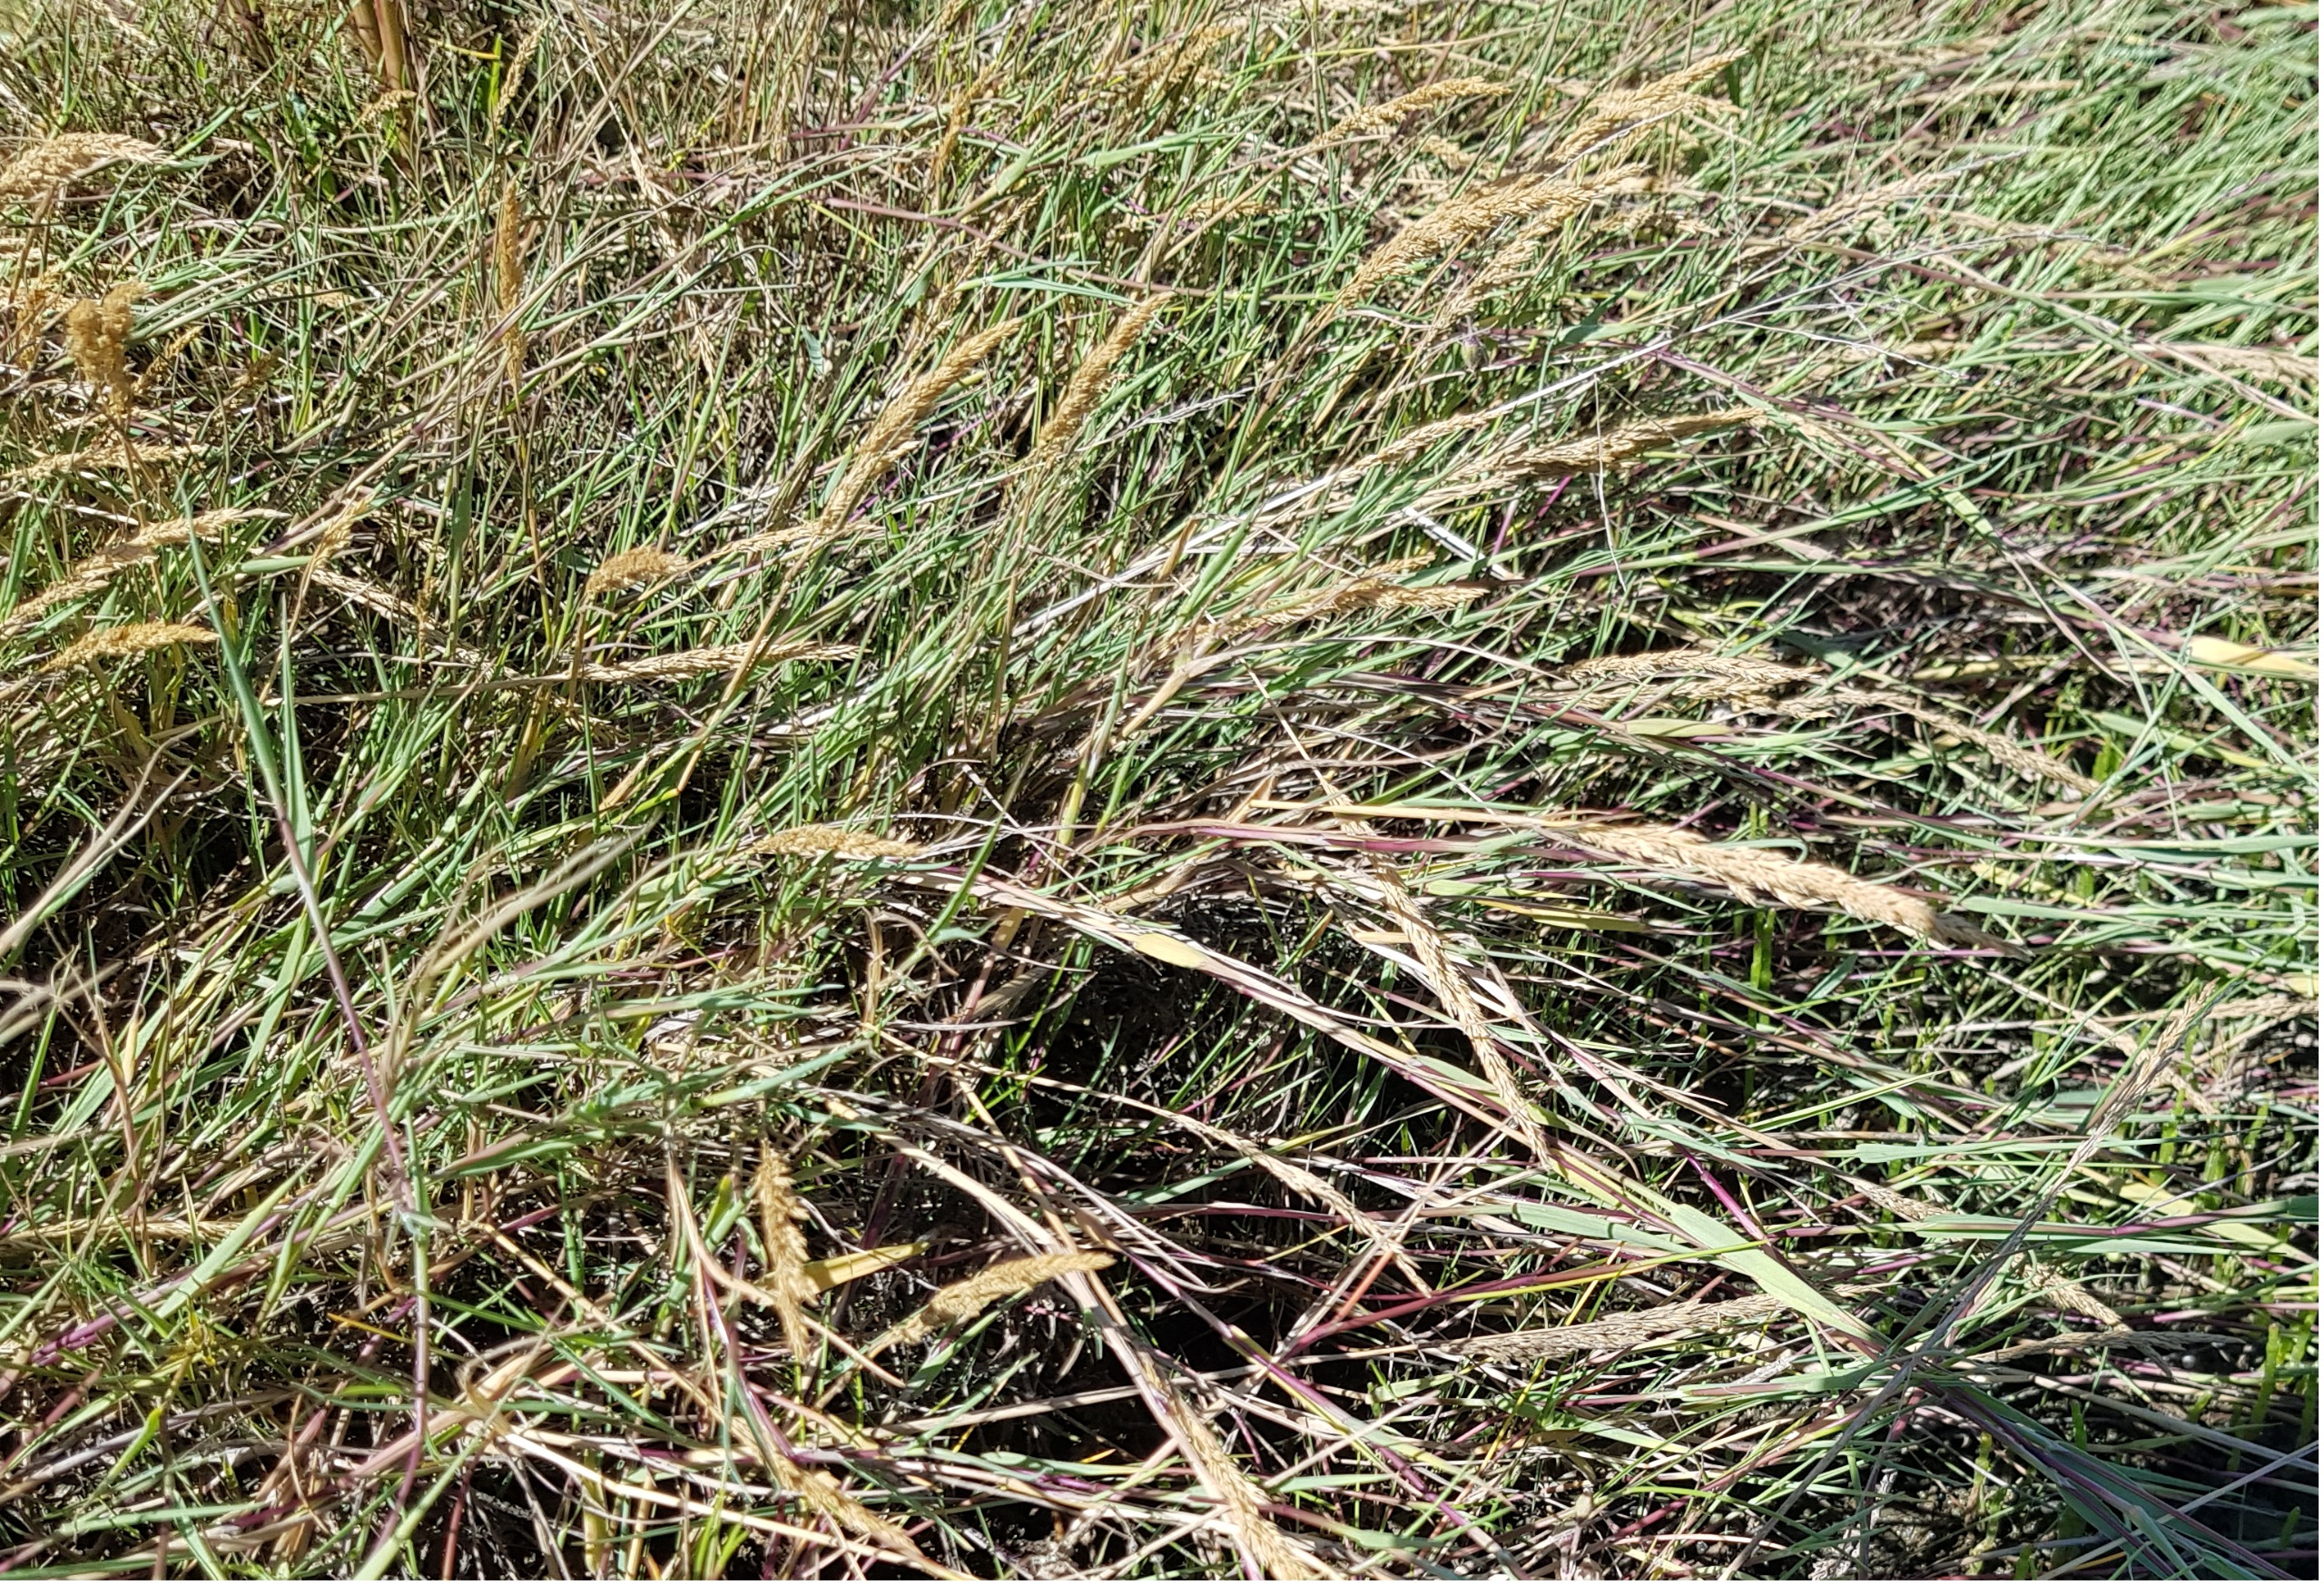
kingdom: Plantae
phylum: Tracheophyta
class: Liliopsida
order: Poales
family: Poaceae
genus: Agrostis
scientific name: Agrostis stolonifera
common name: Klit-hvene
